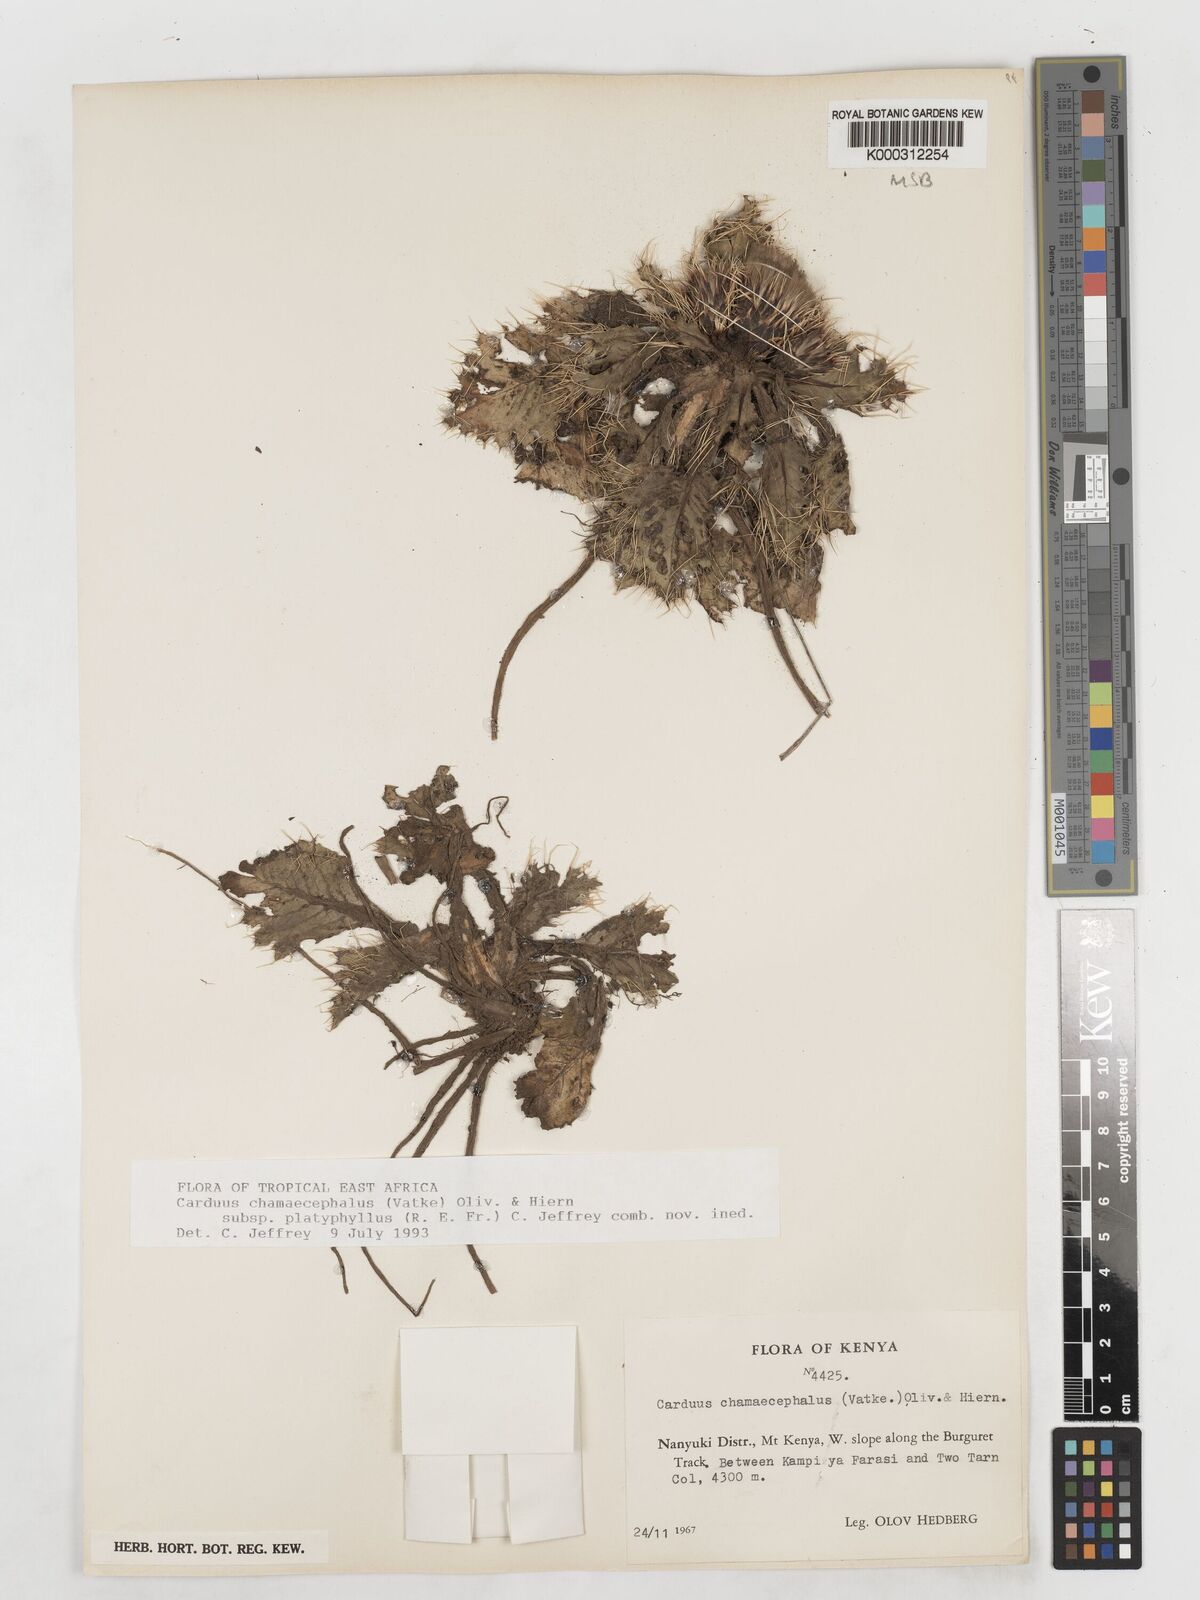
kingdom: Plantae
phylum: Tracheophyta
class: Magnoliopsida
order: Asterales
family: Asteraceae
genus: Carduus
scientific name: Carduus schimperi
